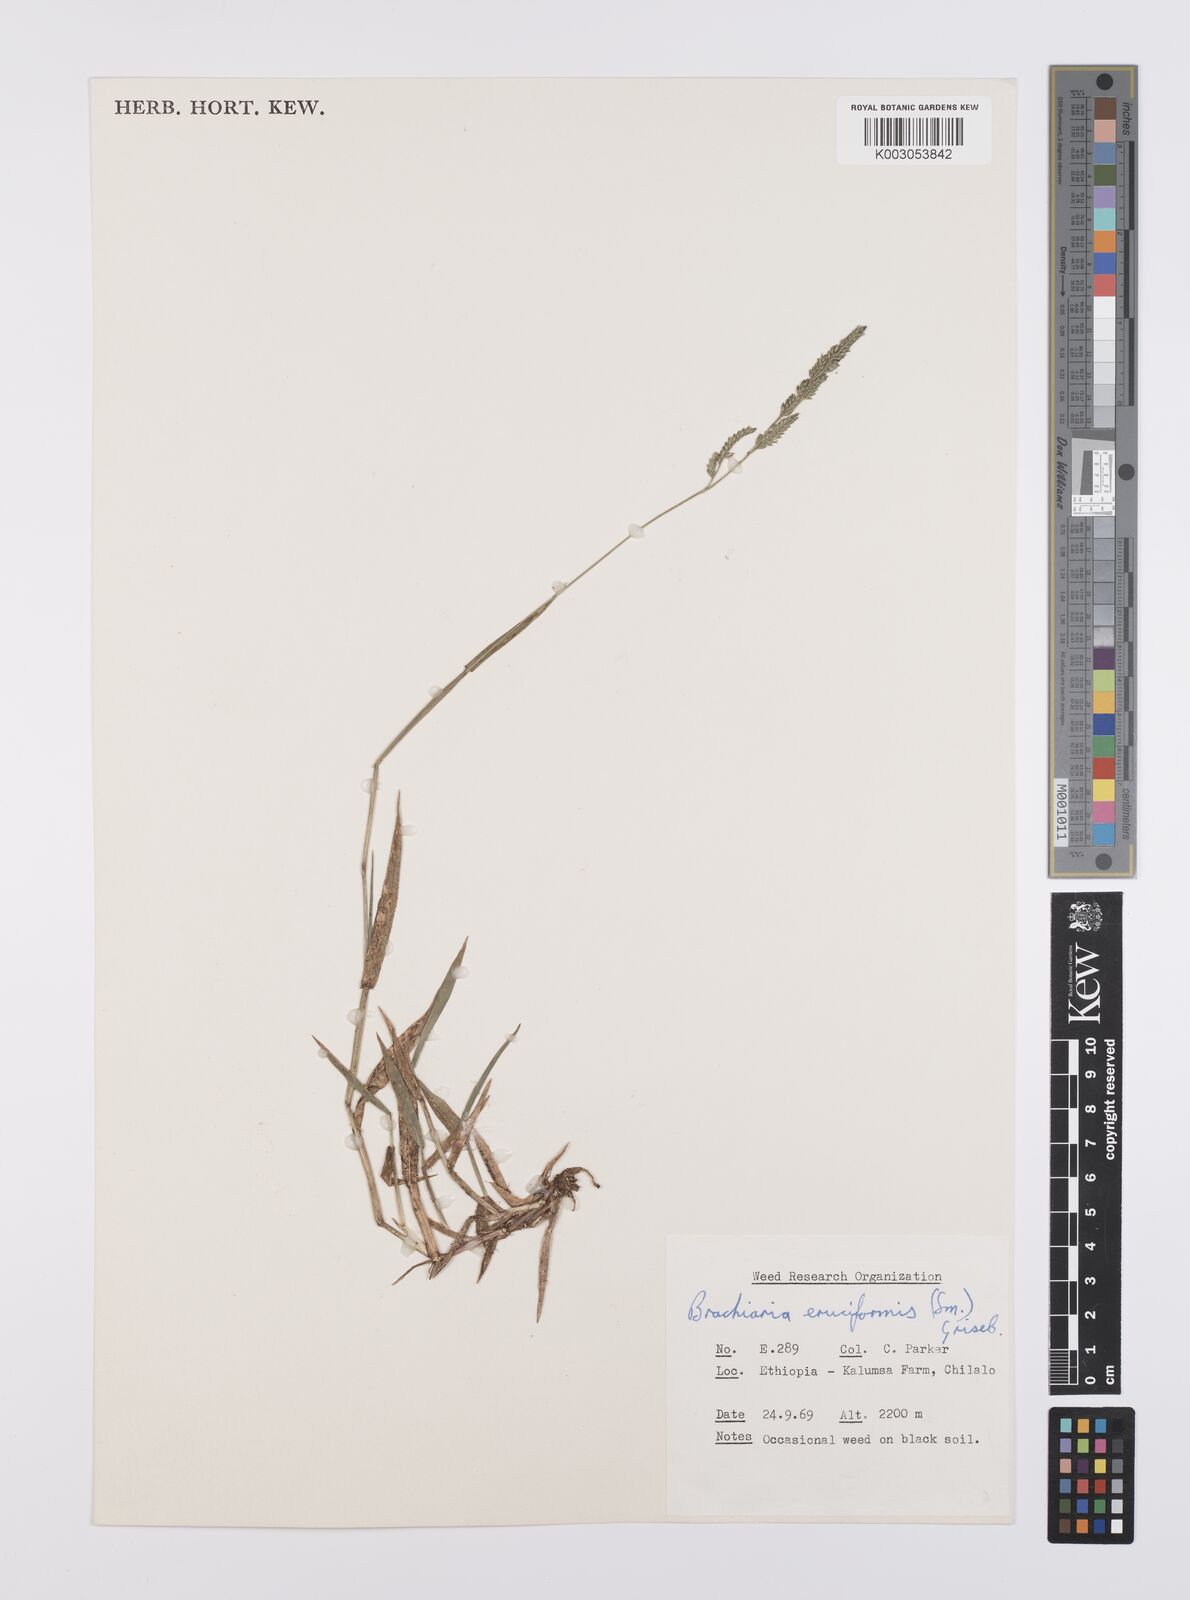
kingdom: Plantae
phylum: Tracheophyta
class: Liliopsida
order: Poales
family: Poaceae
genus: Moorochloa
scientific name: Moorochloa eruciformis
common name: Sweet signalgrass
